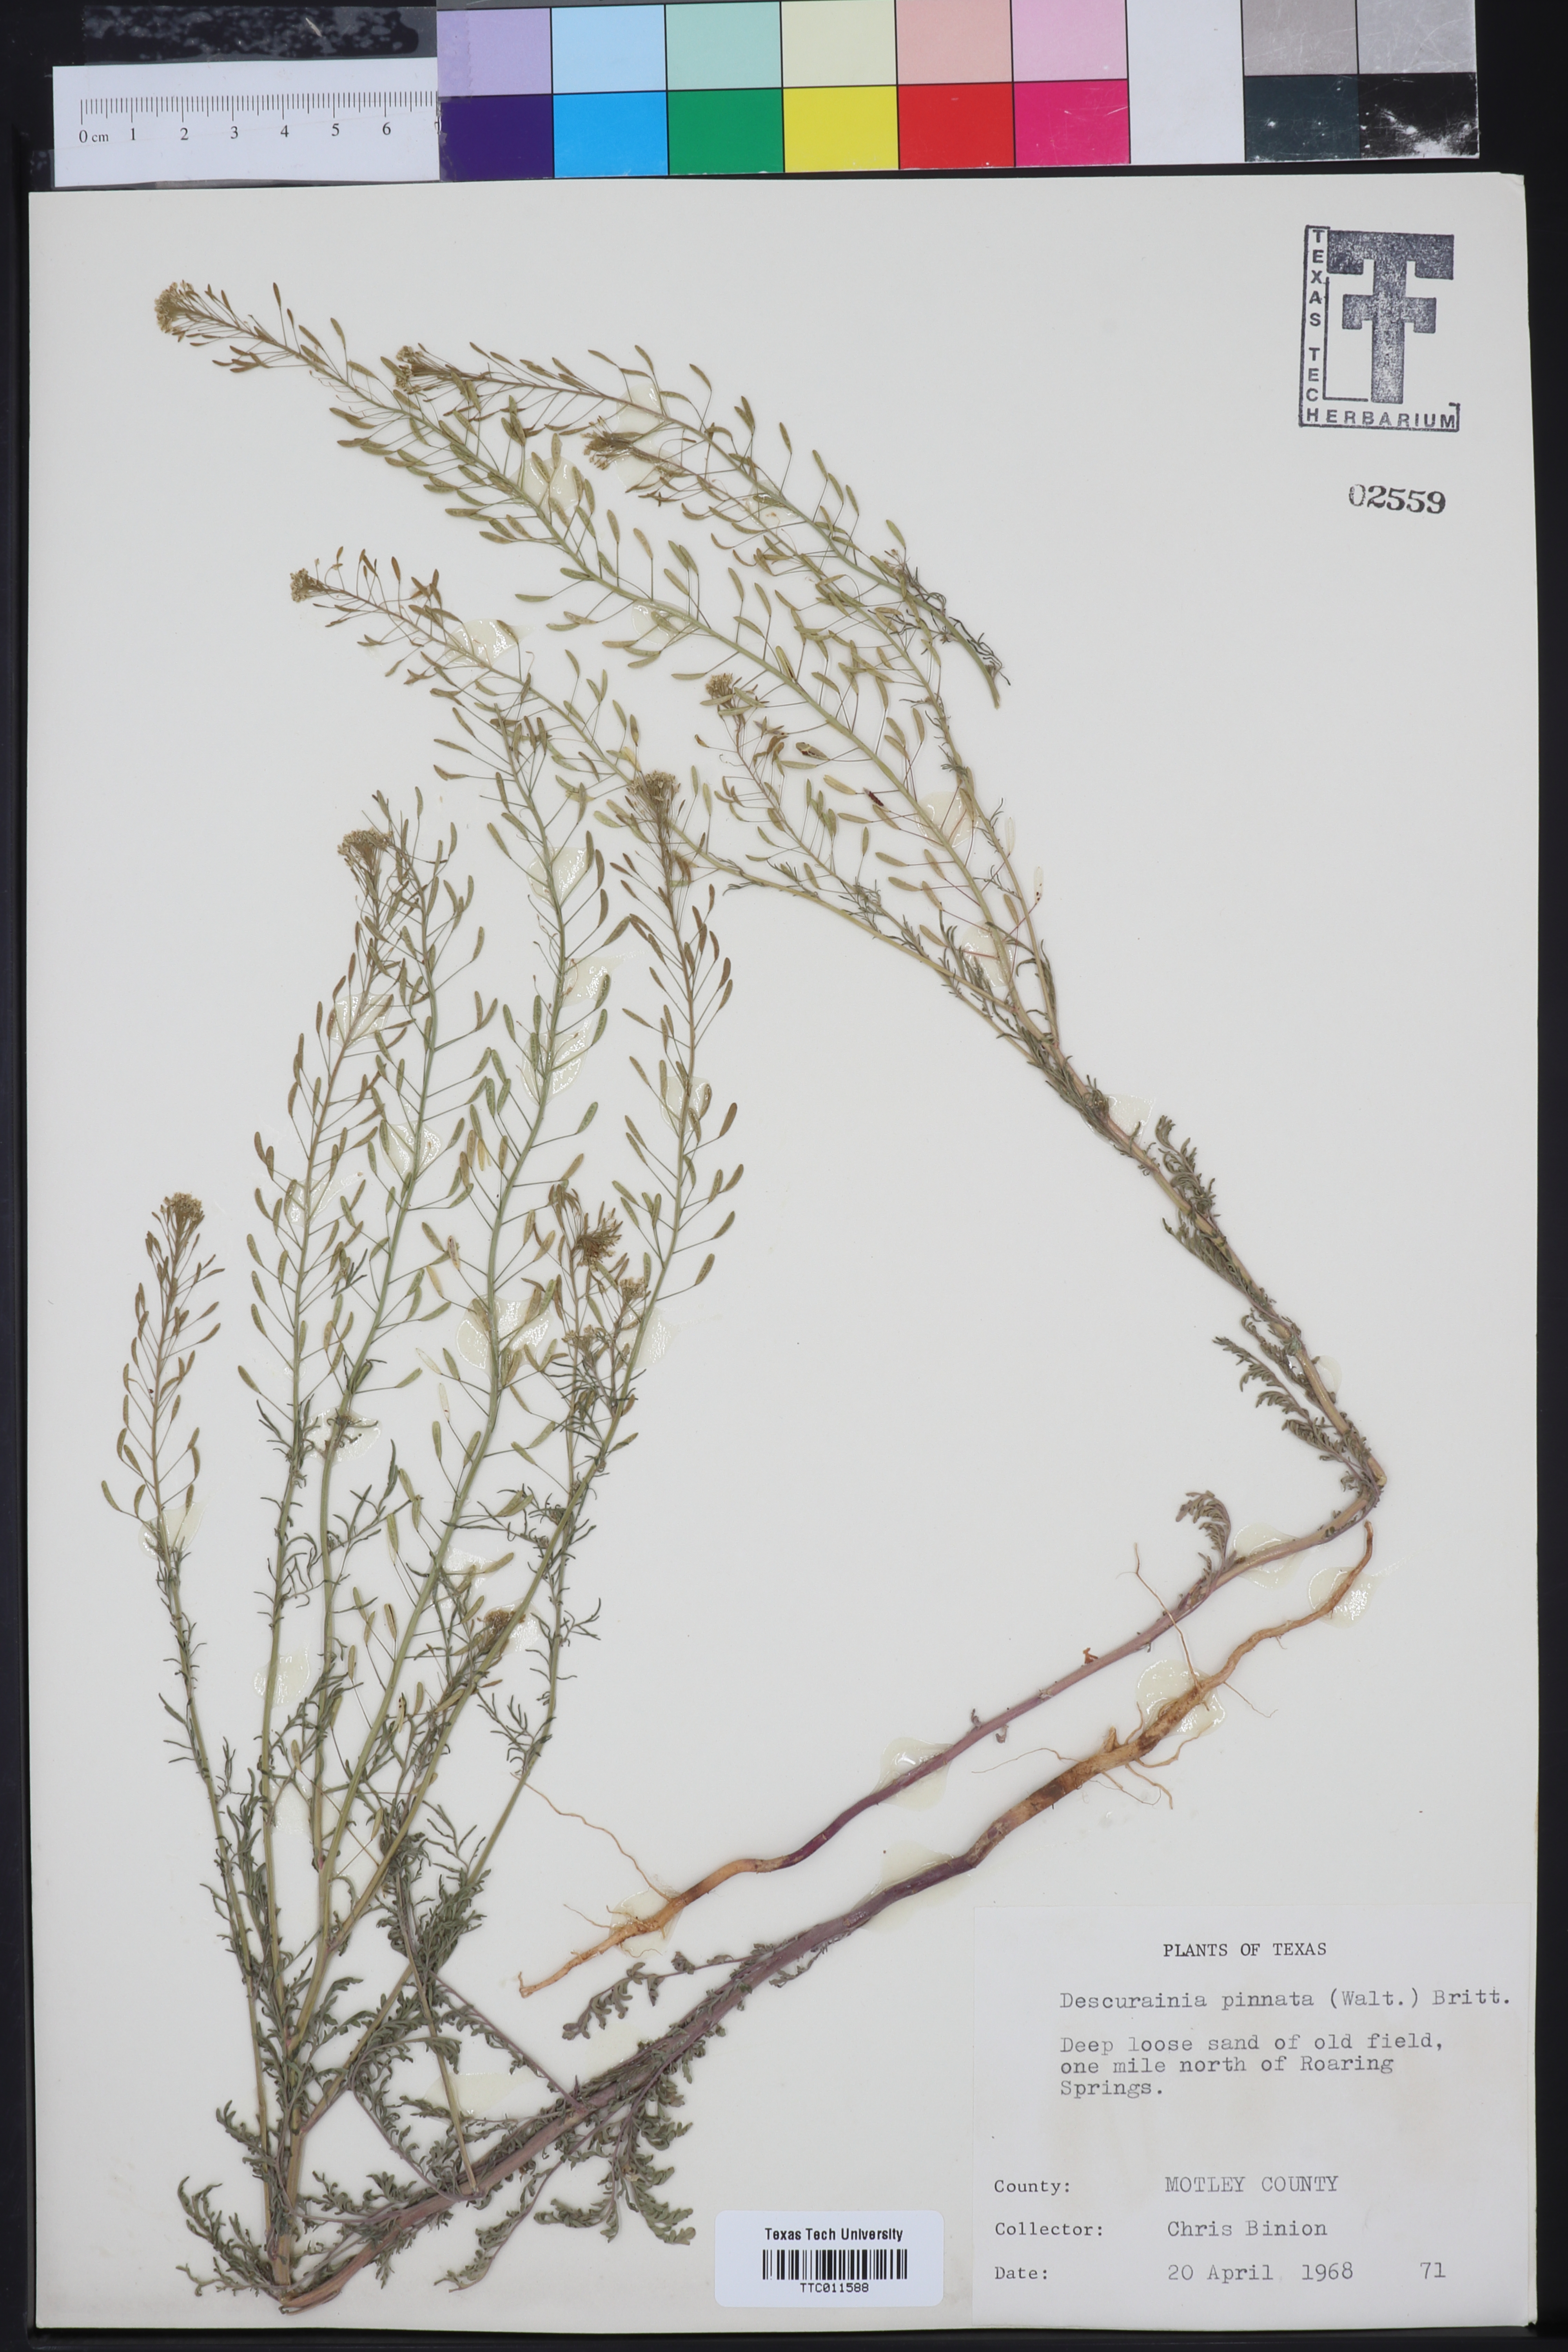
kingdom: Plantae
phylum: Tracheophyta
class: Magnoliopsida
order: Brassicales
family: Brassicaceae
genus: Descurainia
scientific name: Descurainia pinnata
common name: Western tansy mustard
